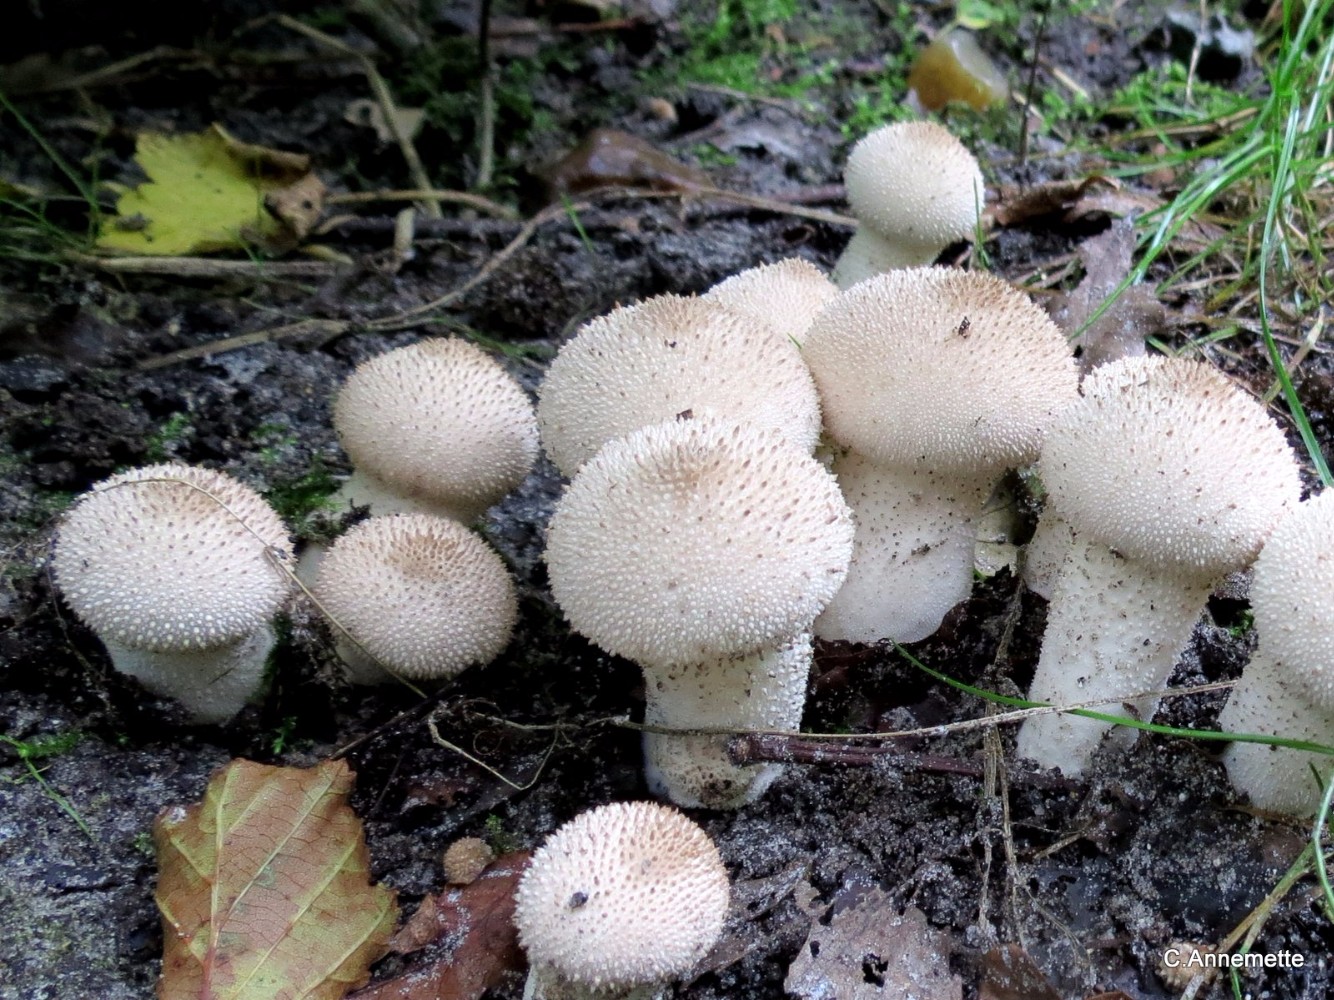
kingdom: Fungi
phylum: Basidiomycota
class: Agaricomycetes
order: Agaricales
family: Lycoperdaceae
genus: Lycoperdon
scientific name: Lycoperdon perlatum
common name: krystal-støvbold
